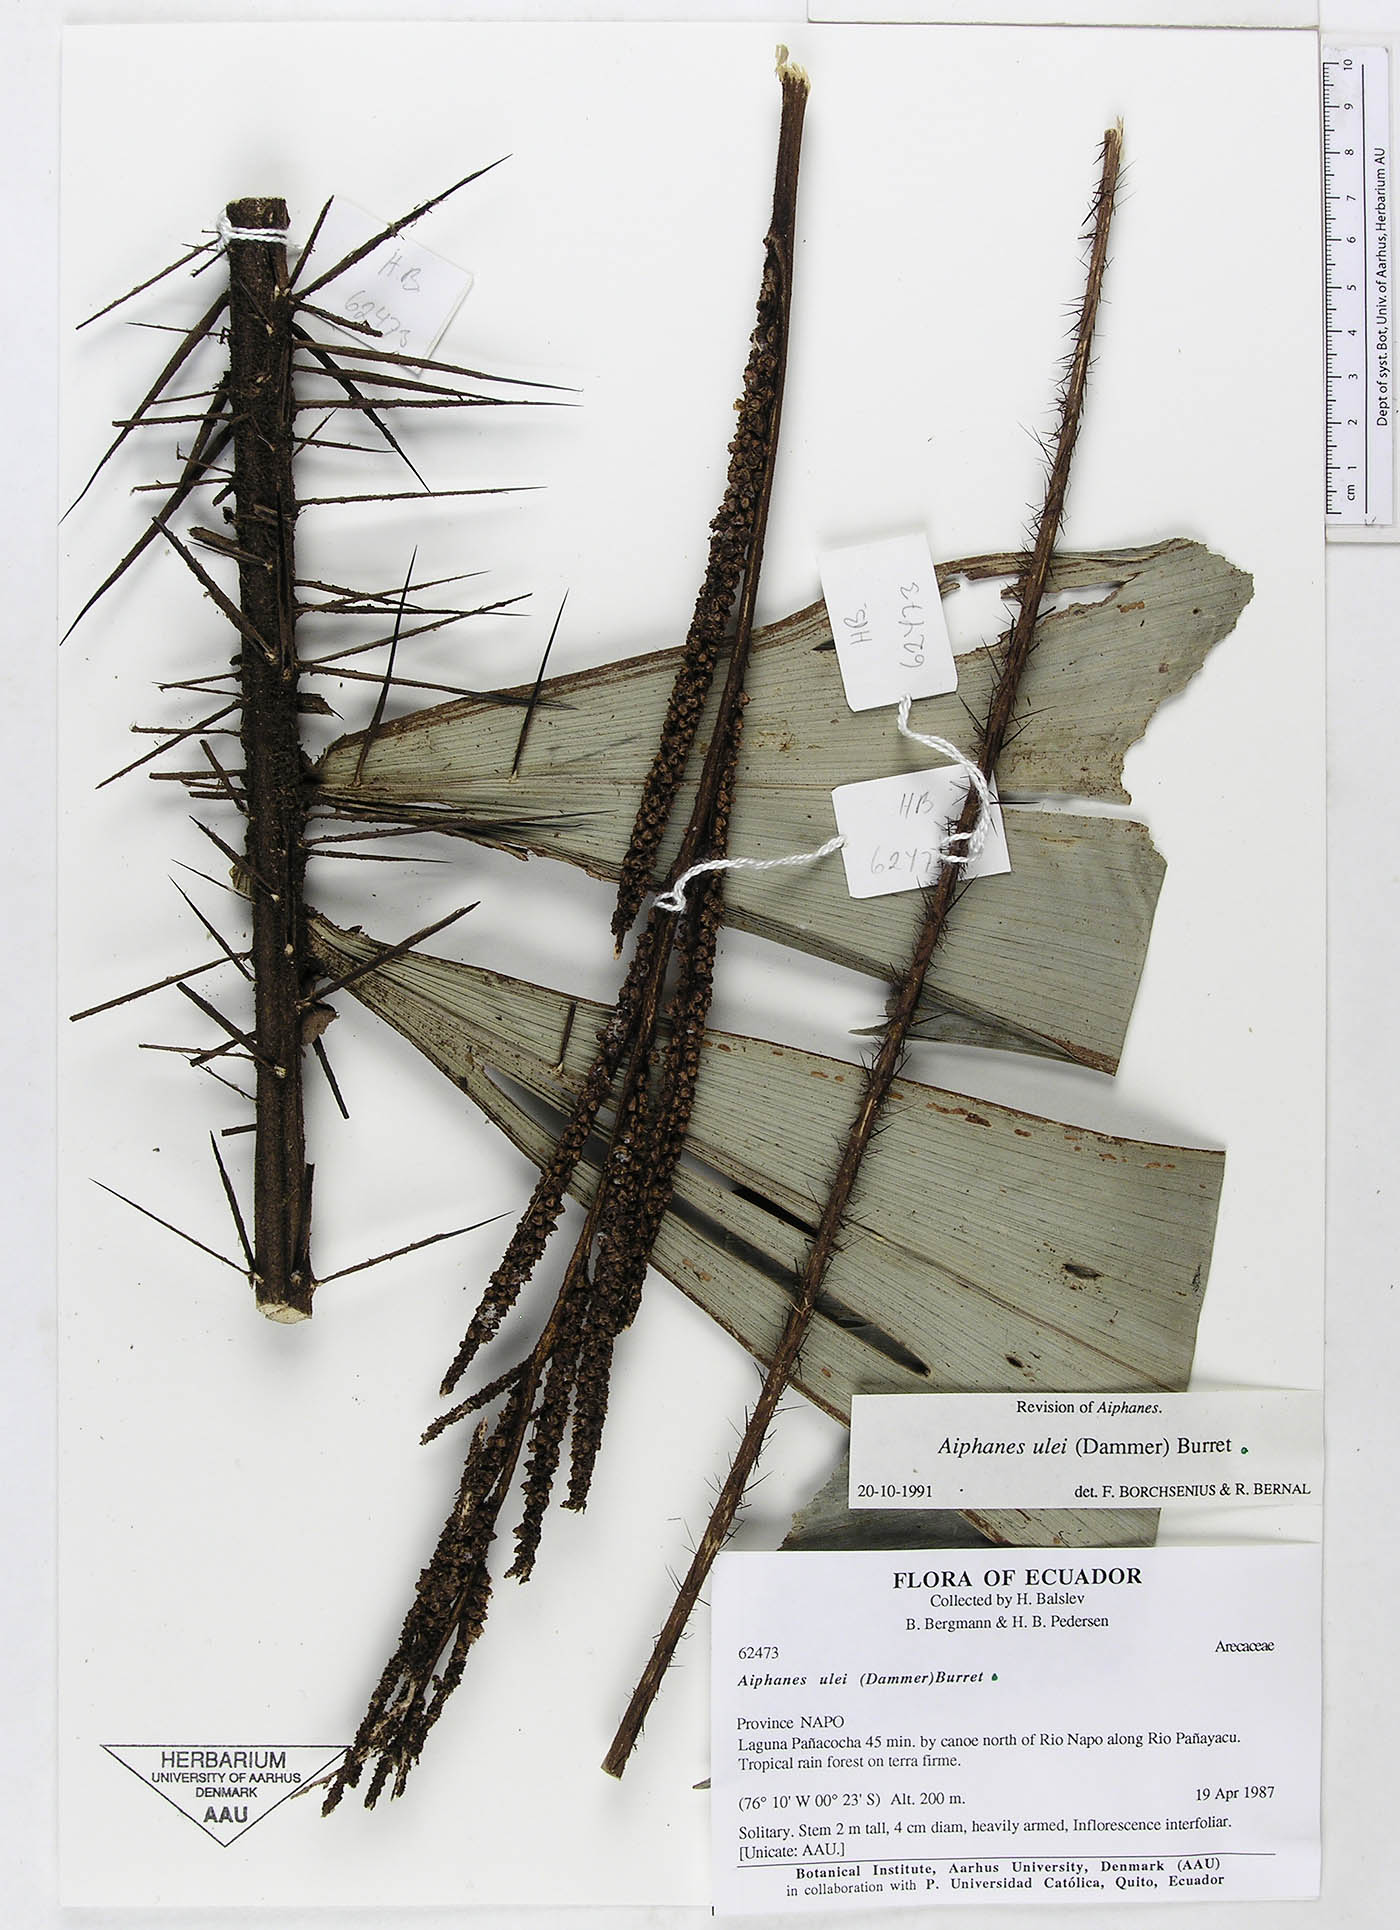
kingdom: Plantae
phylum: Tracheophyta
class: Liliopsida
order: Arecales
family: Arecaceae
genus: Aiphanes
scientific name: Aiphanes ulei
